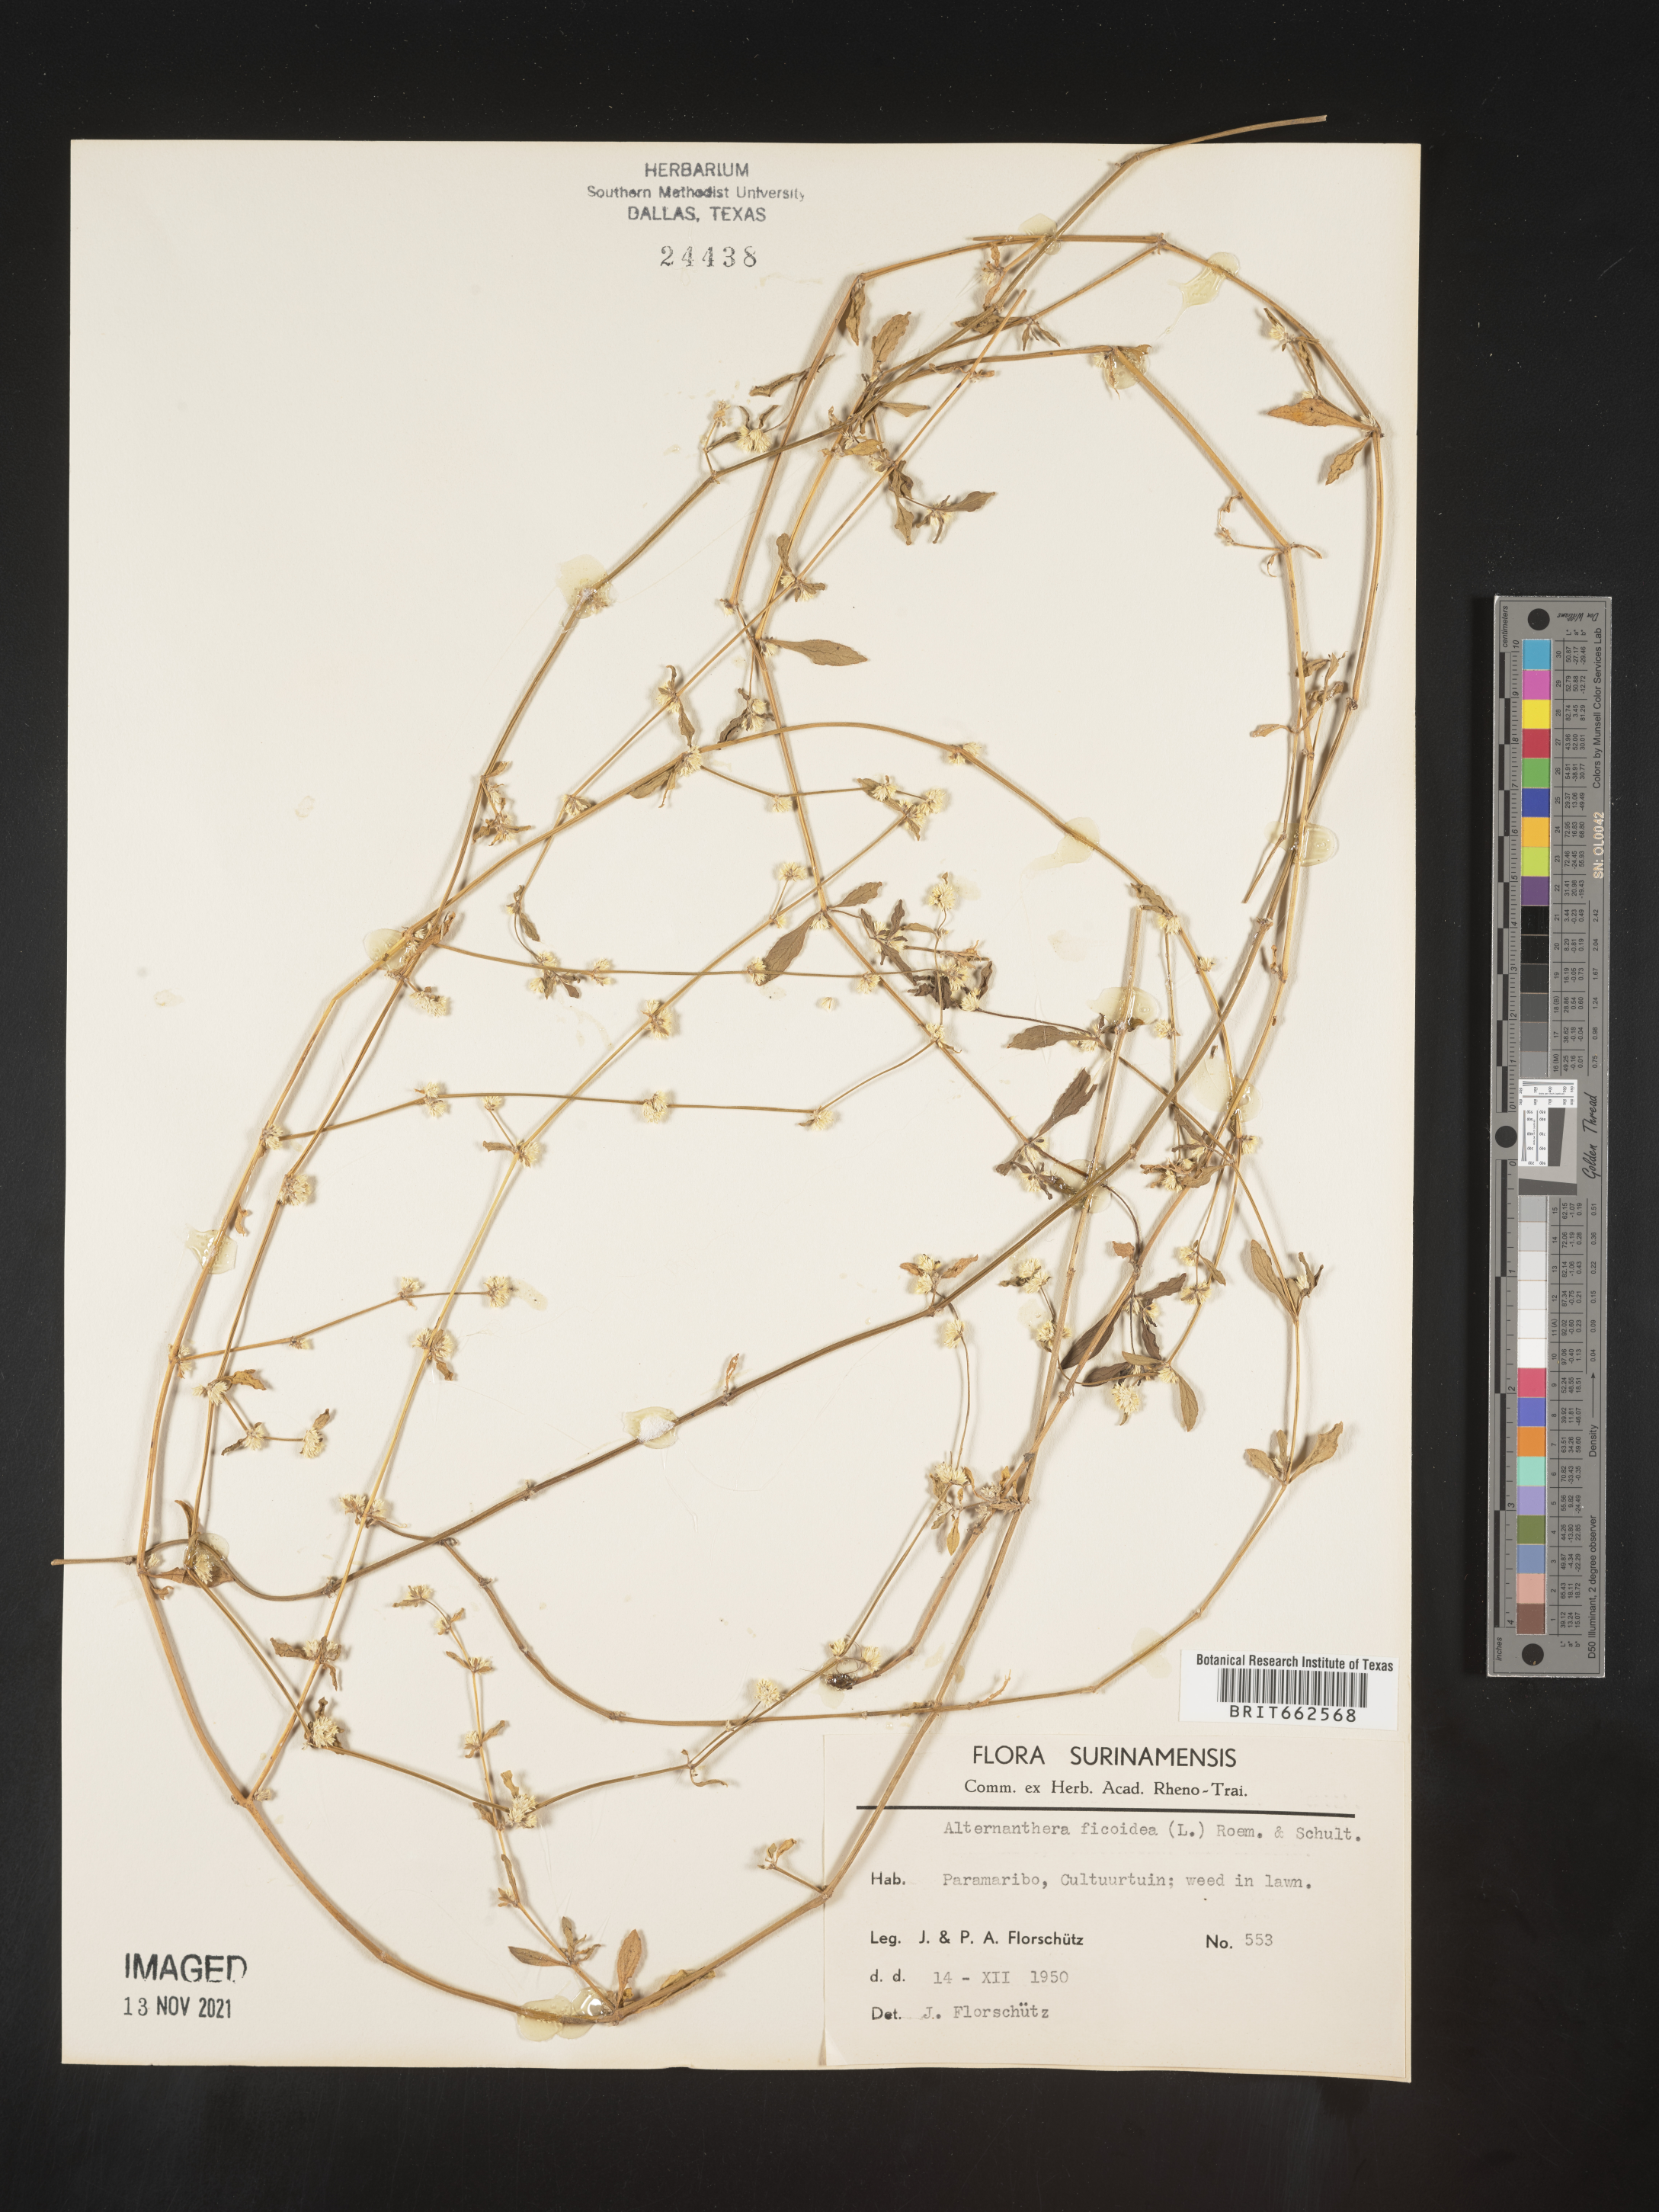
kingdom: Plantae
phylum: Tracheophyta
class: Magnoliopsida
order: Caryophyllales
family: Amaranthaceae
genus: Alternanthera
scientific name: Alternanthera
